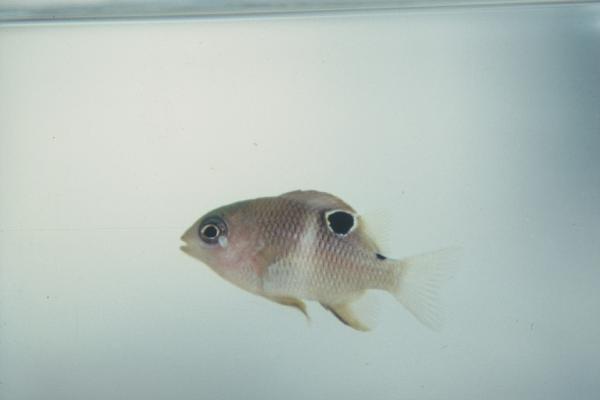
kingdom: Animalia
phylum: Chordata
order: Perciformes
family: Pomacentridae
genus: Plectroglyphidodon
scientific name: Plectroglyphidodon leucozonus
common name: White-band damsel
